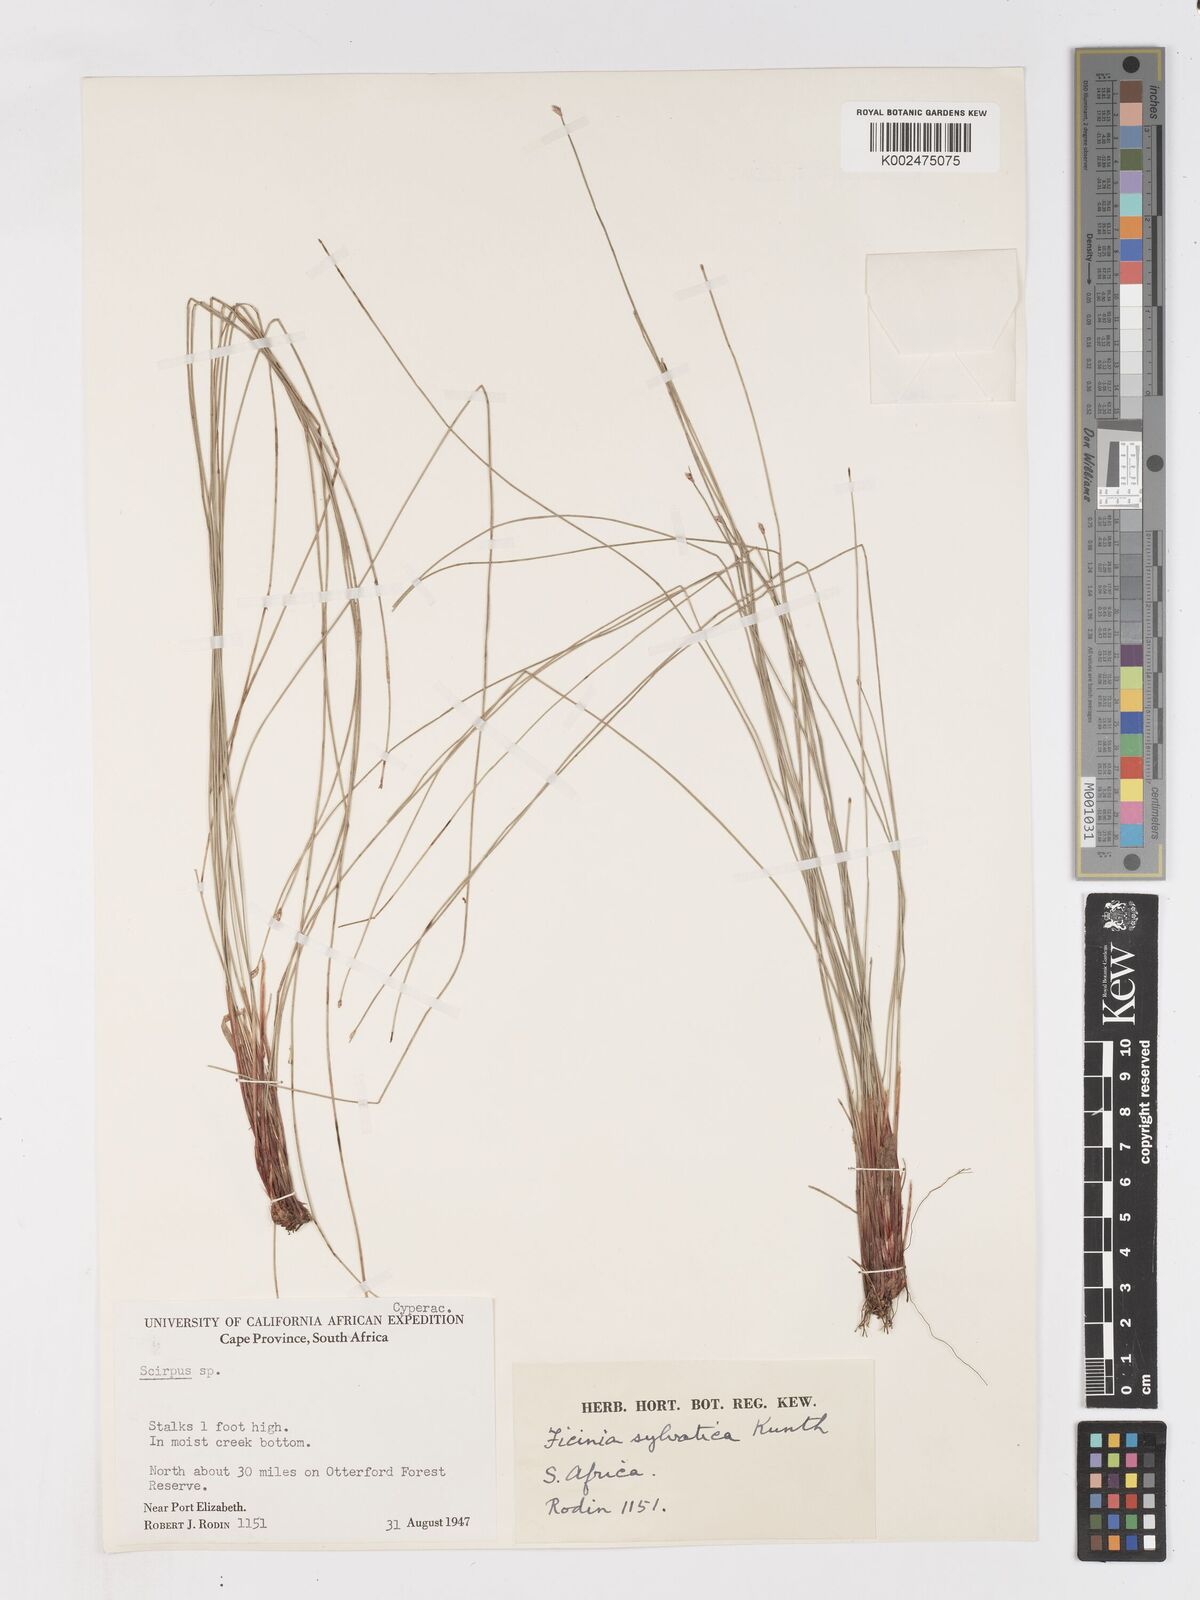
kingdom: Plantae
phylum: Tracheophyta
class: Liliopsida
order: Poales
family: Cyperaceae
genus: Ficinia
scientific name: Ficinia sylvatica
